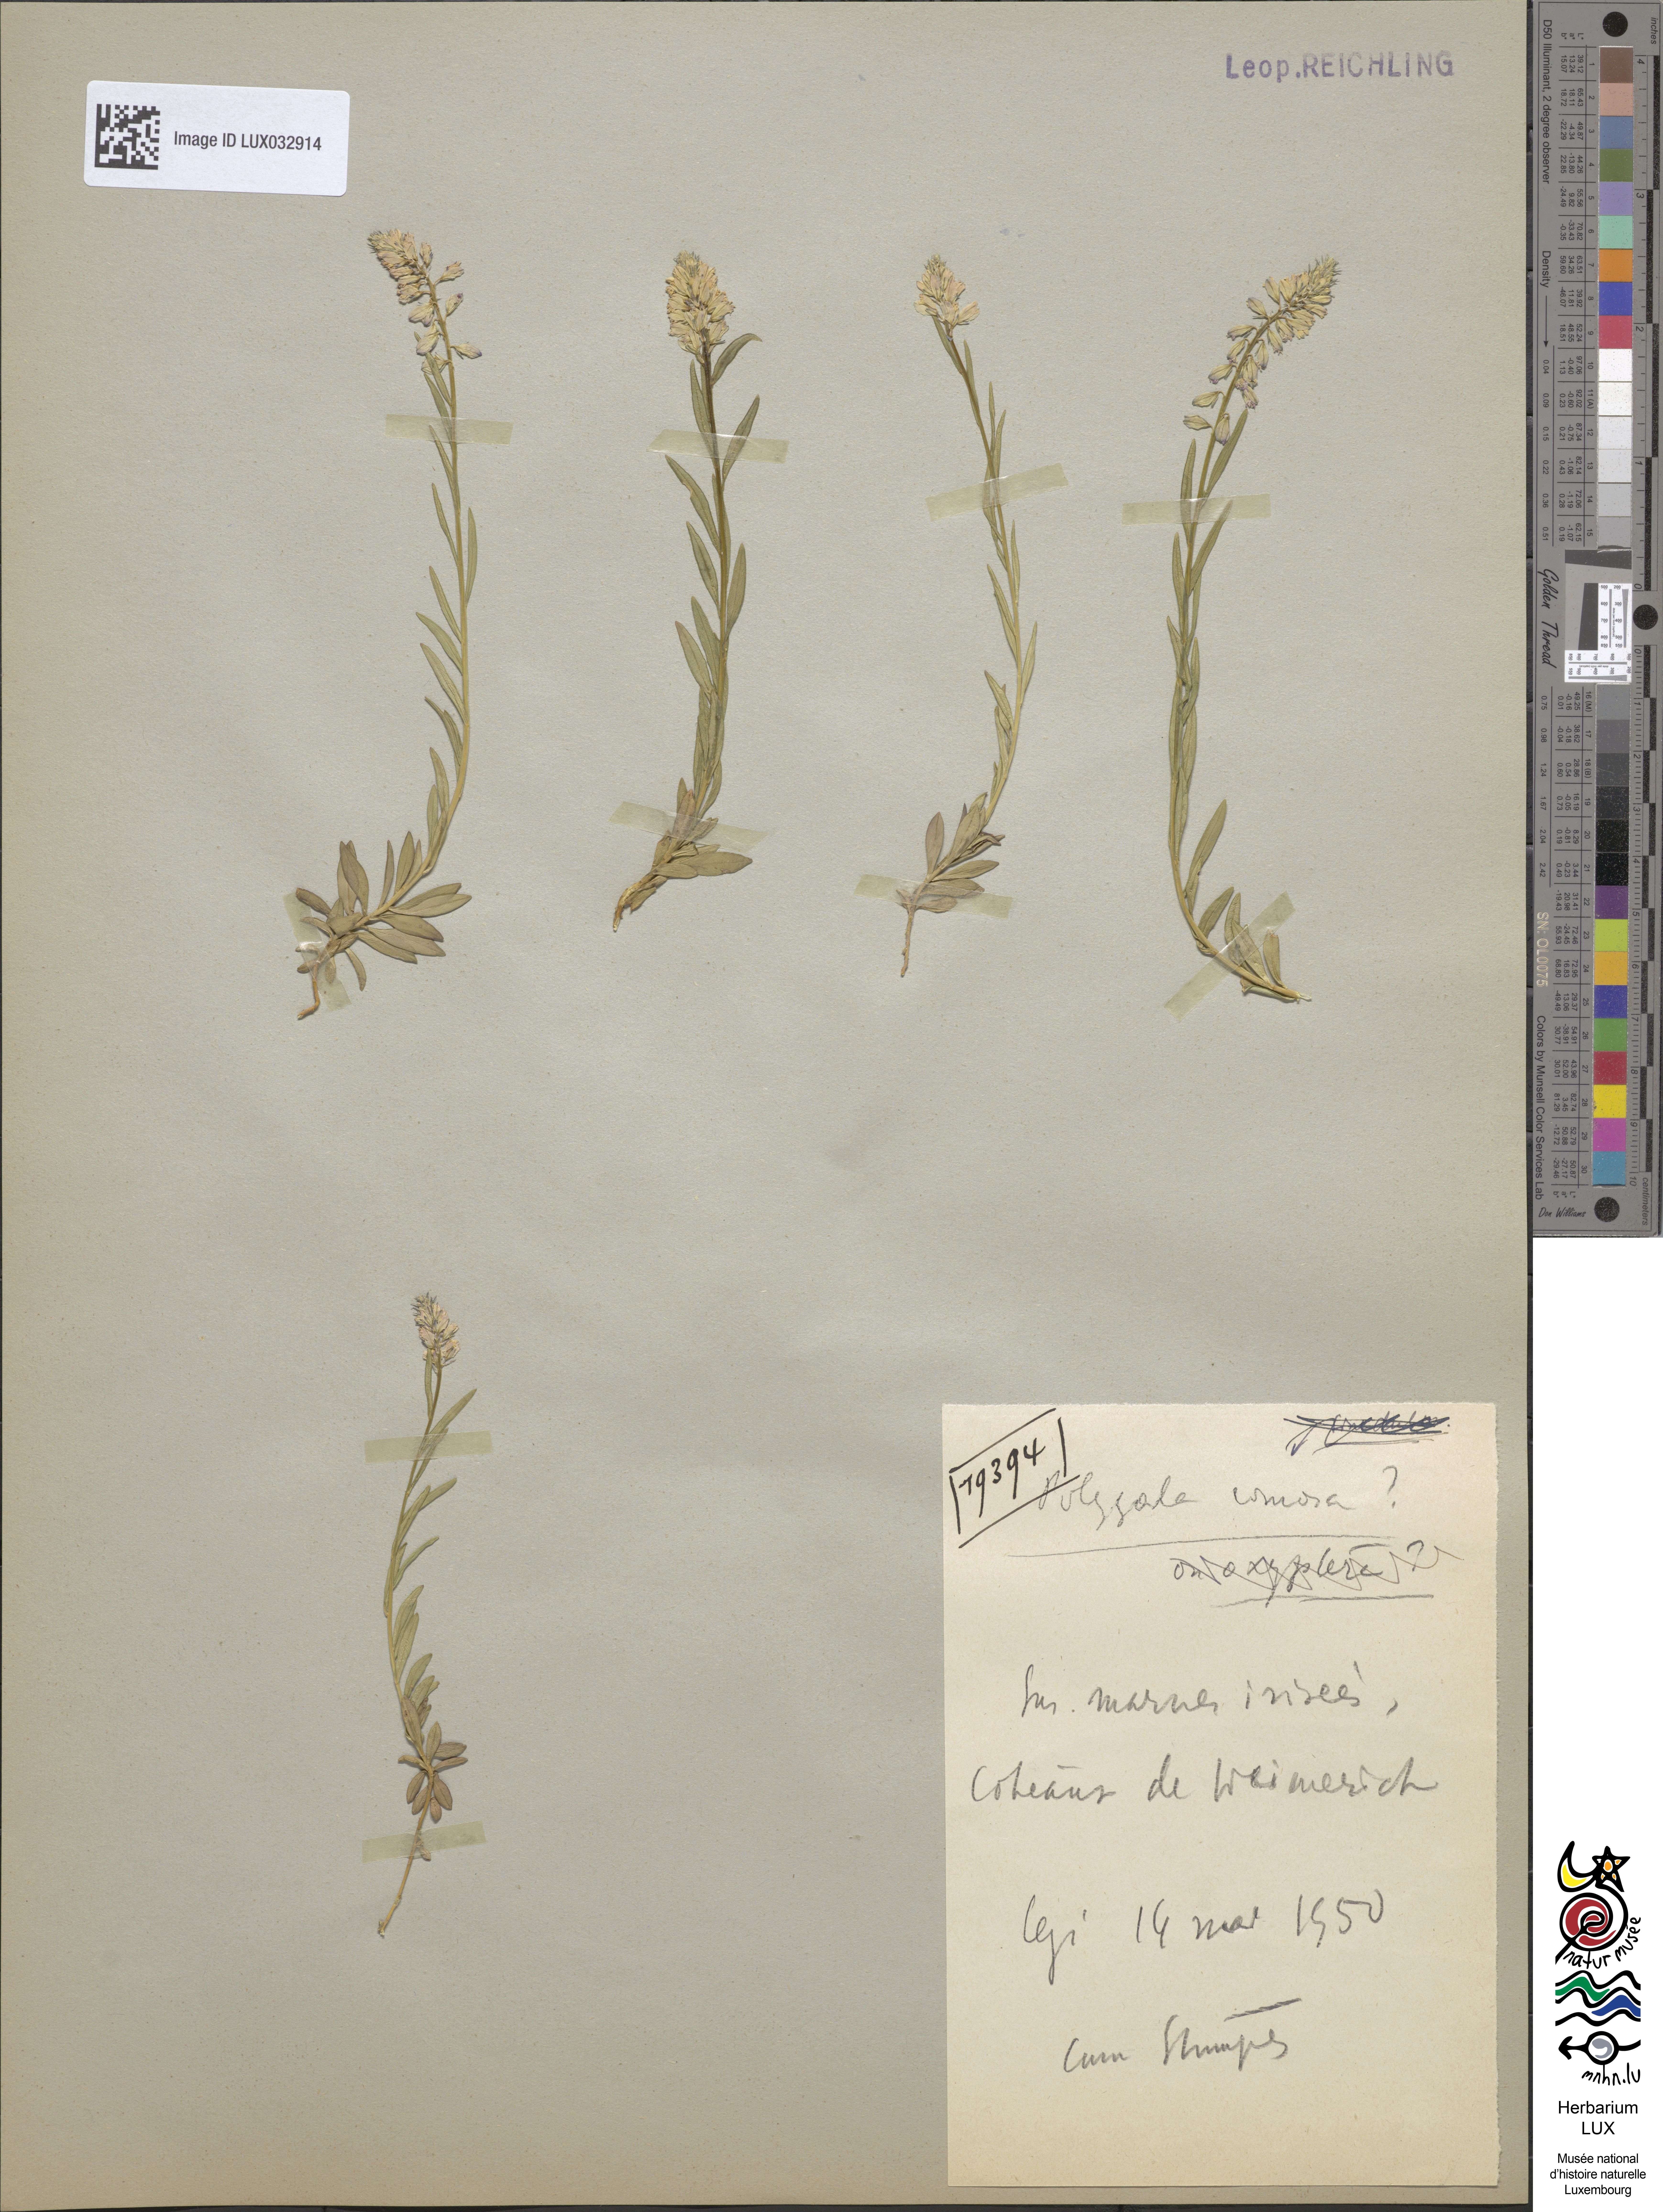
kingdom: Plantae
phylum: Tracheophyta
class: Magnoliopsida
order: Fabales
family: Polygalaceae
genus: Polygala
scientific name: Polygala comosa
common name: Tufted milkwort
